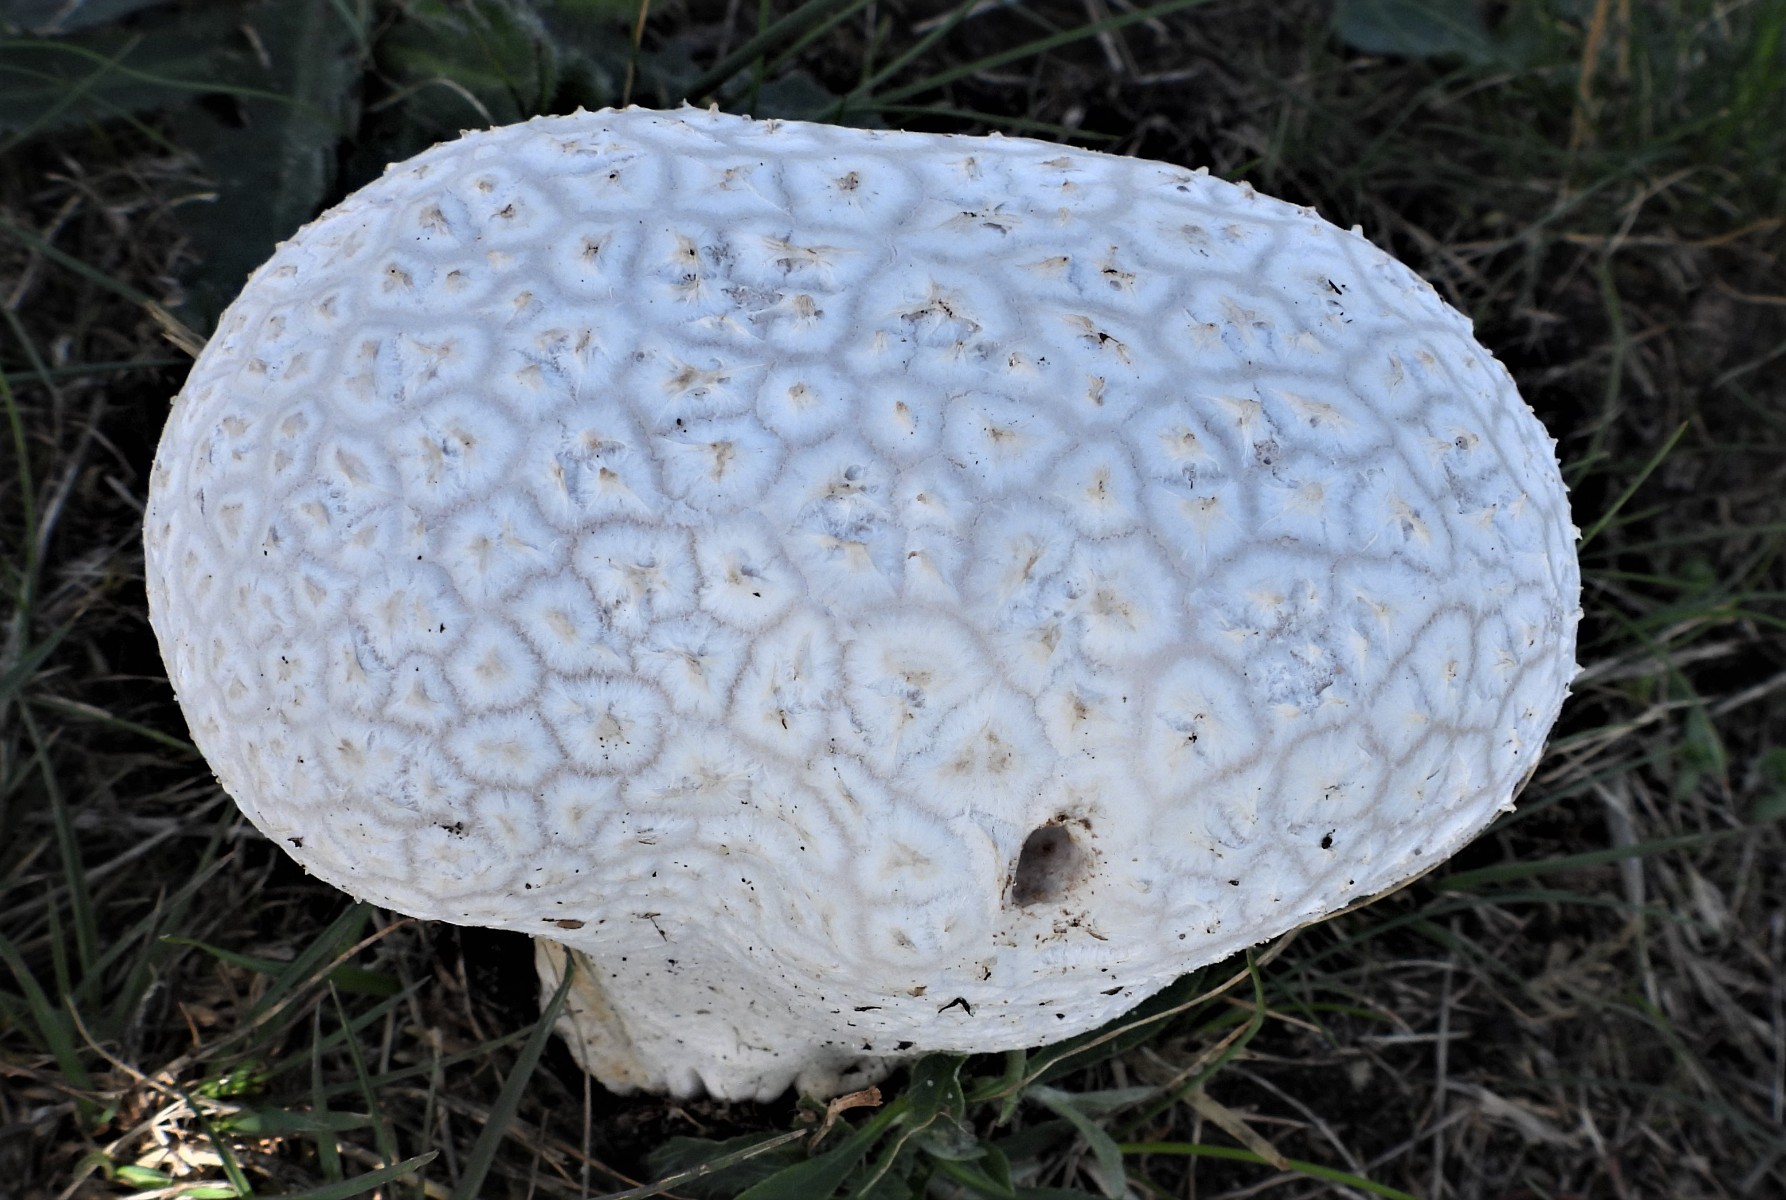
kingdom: Fungi
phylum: Basidiomycota
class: Agaricomycetes
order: Agaricales
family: Lycoperdaceae
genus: Bovistella
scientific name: Bovistella utriformis
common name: skællet støvbold
